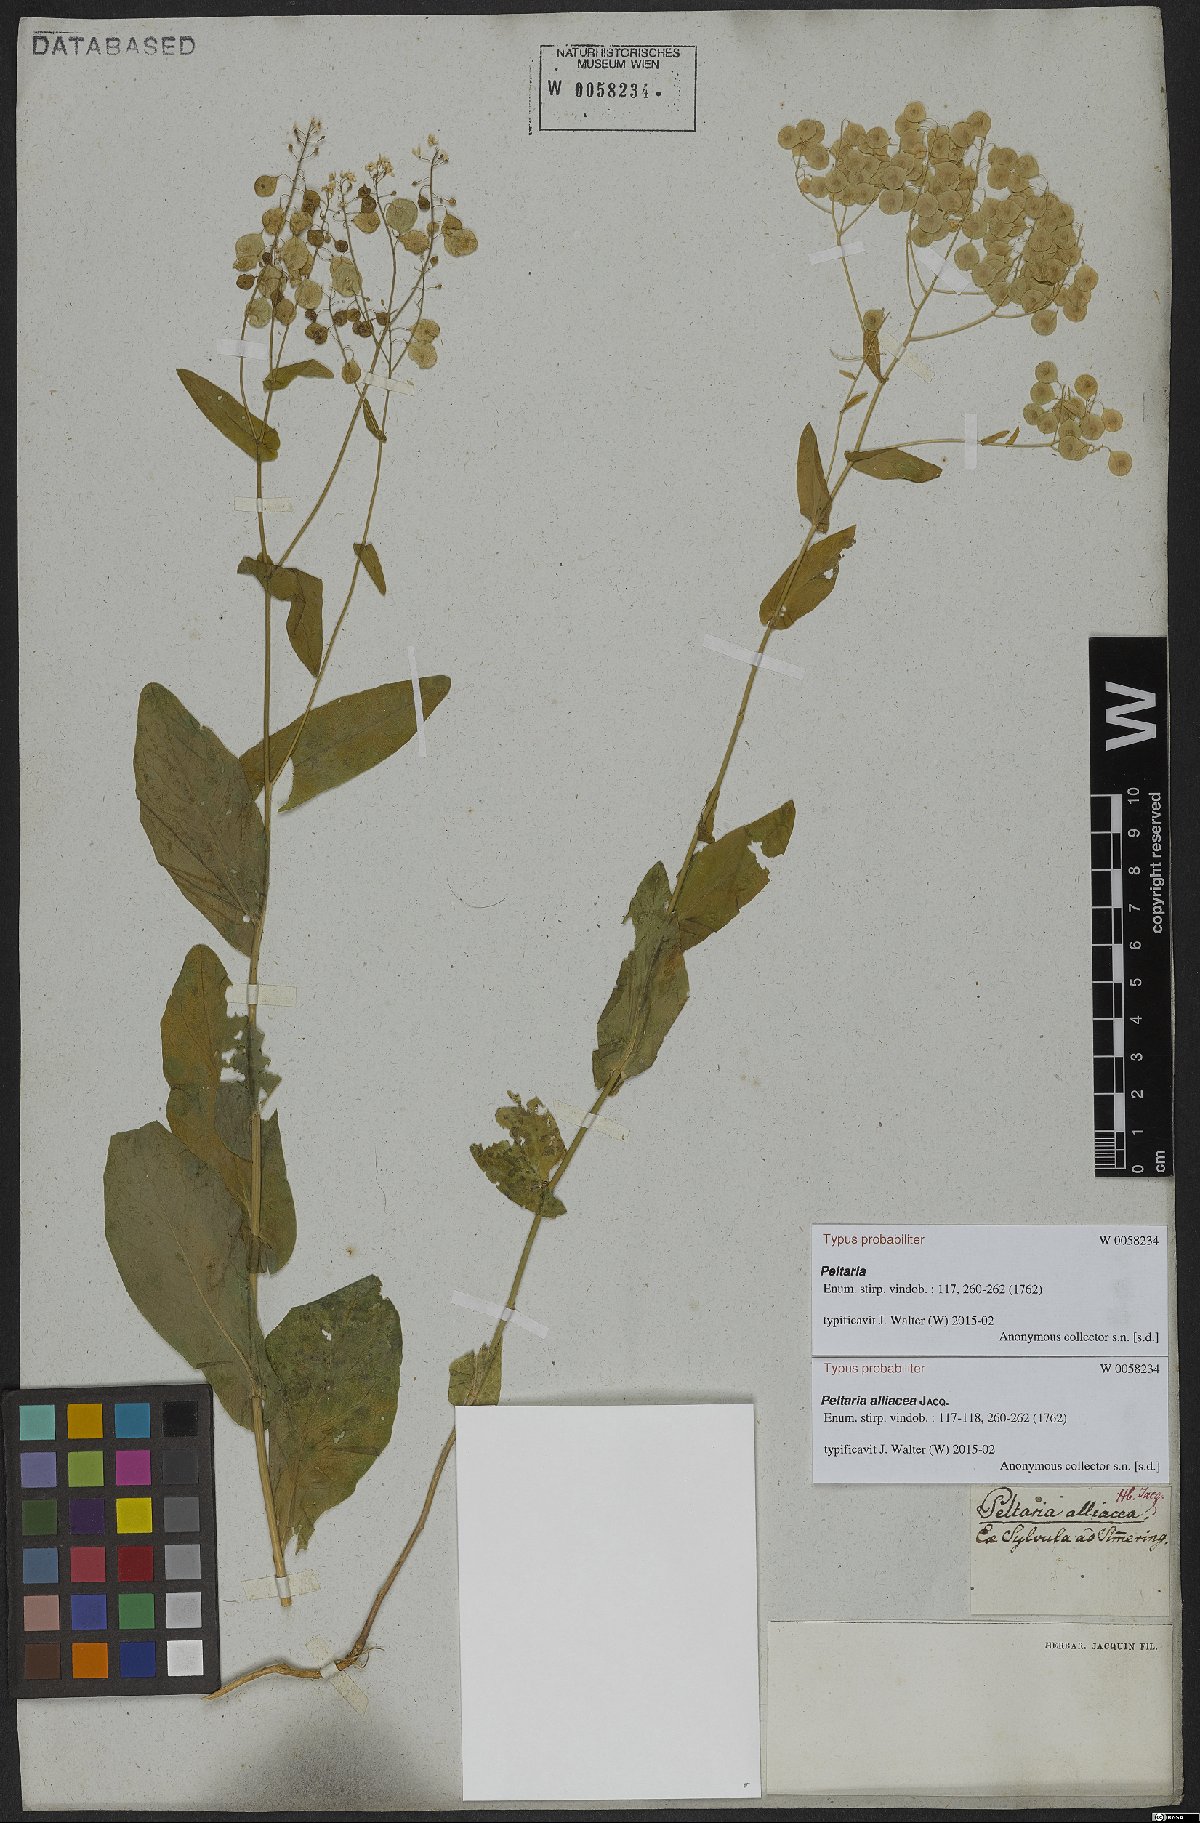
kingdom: Plantae
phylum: Tracheophyta
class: Magnoliopsida
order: Brassicales
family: Brassicaceae
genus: Peltaria
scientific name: Peltaria alliacea
